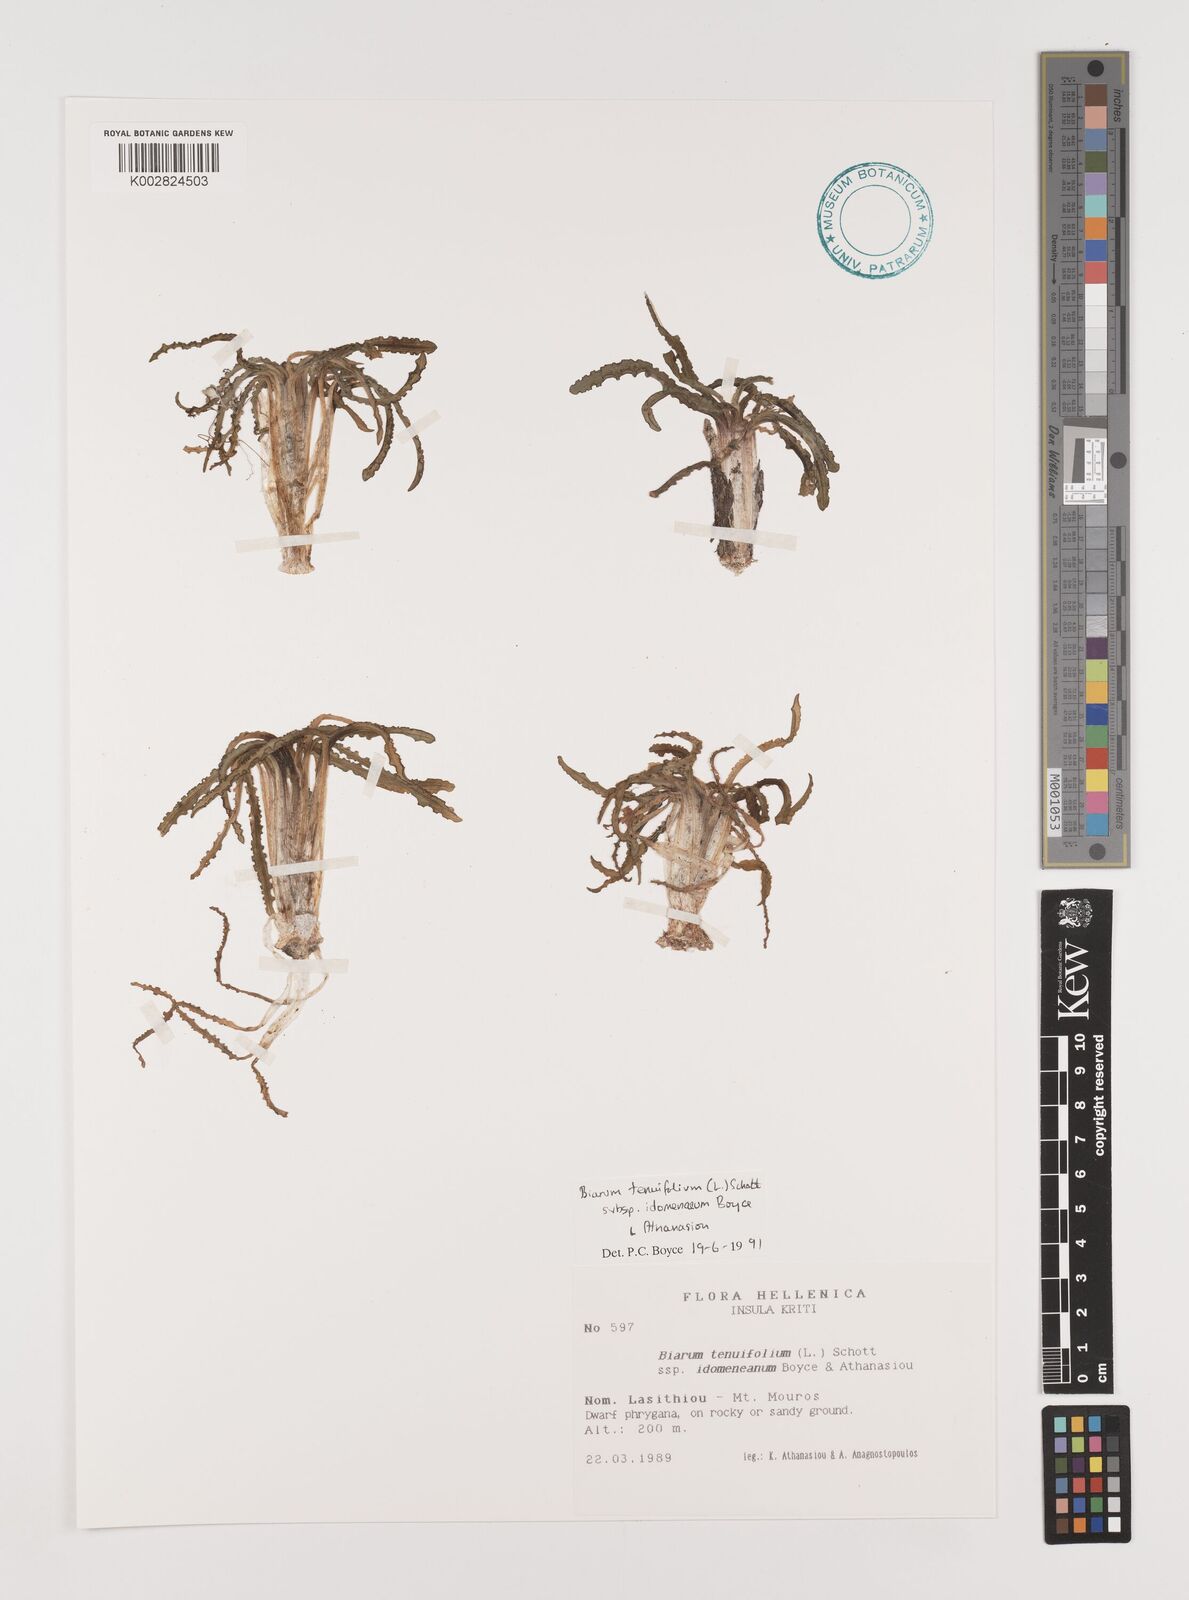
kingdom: Plantae
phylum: Tracheophyta
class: Liliopsida
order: Alismatales
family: Araceae
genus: Biarum
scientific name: Biarum tenuifolium
